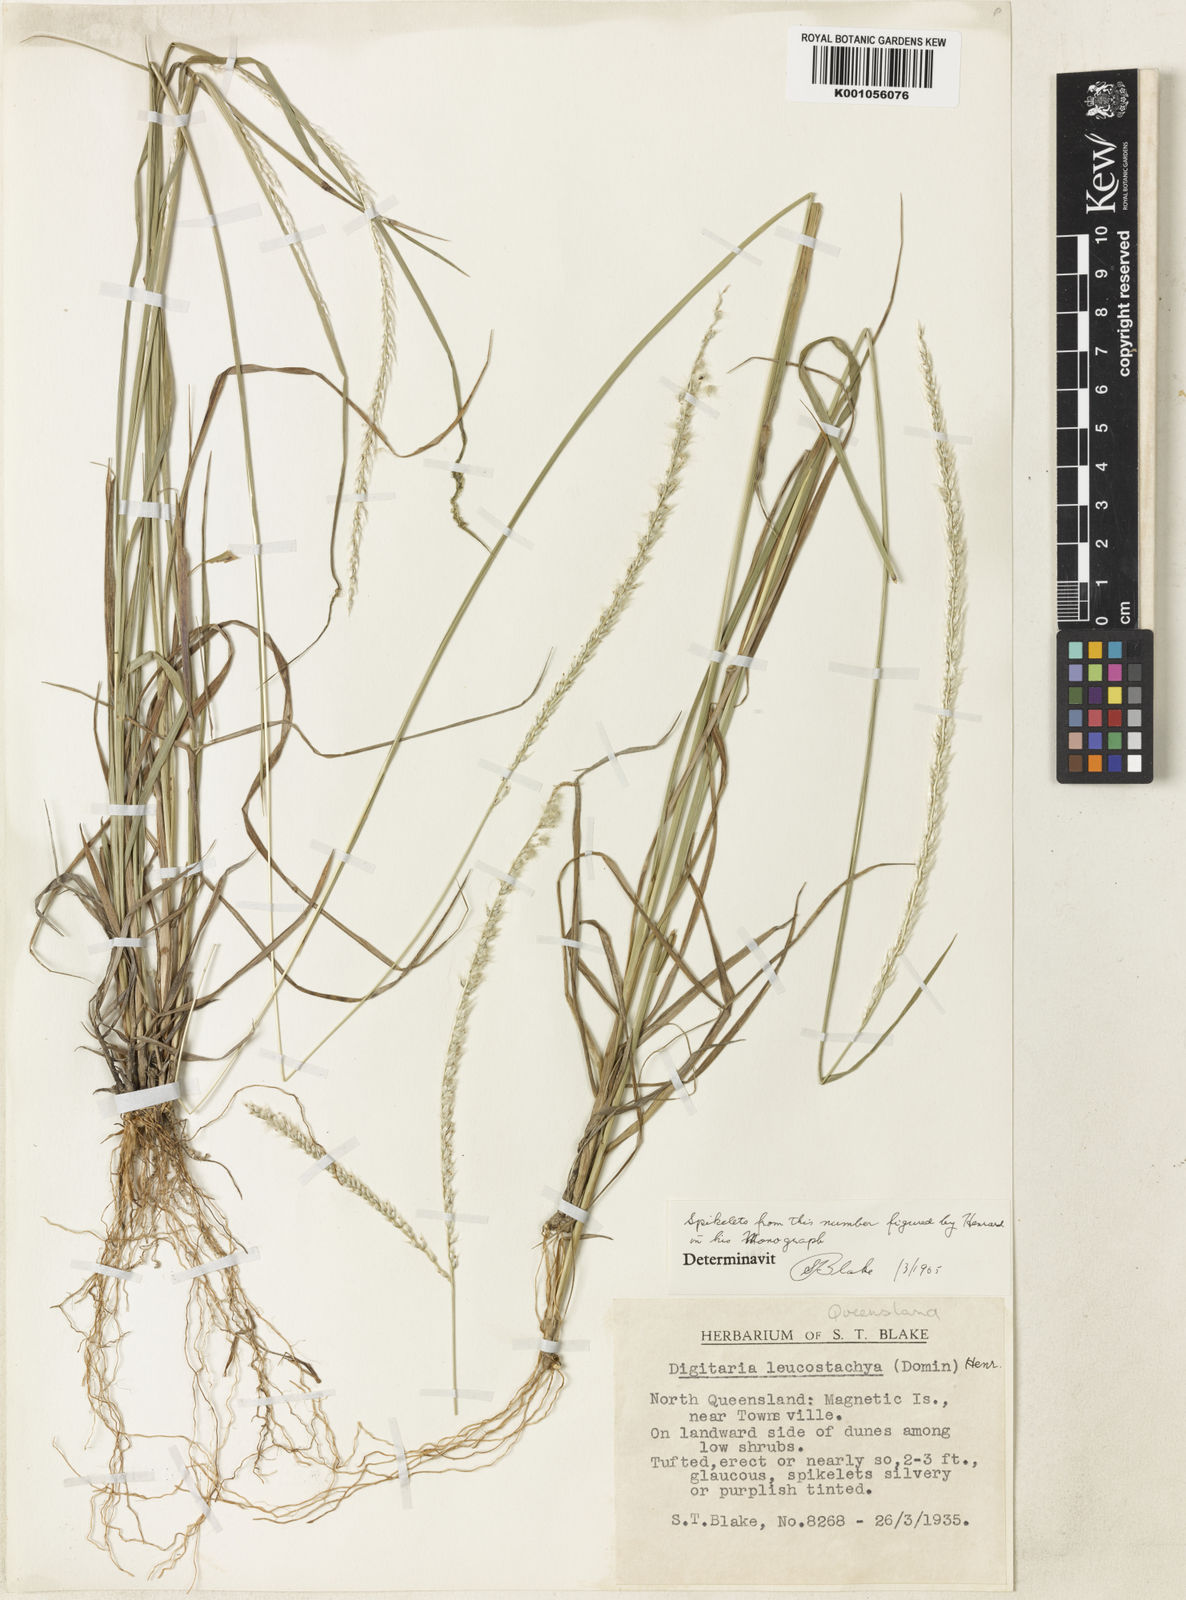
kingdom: Plantae
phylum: Tracheophyta
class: Liliopsida
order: Poales
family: Poaceae
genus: Digitaria
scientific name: Digitaria leucostachya
